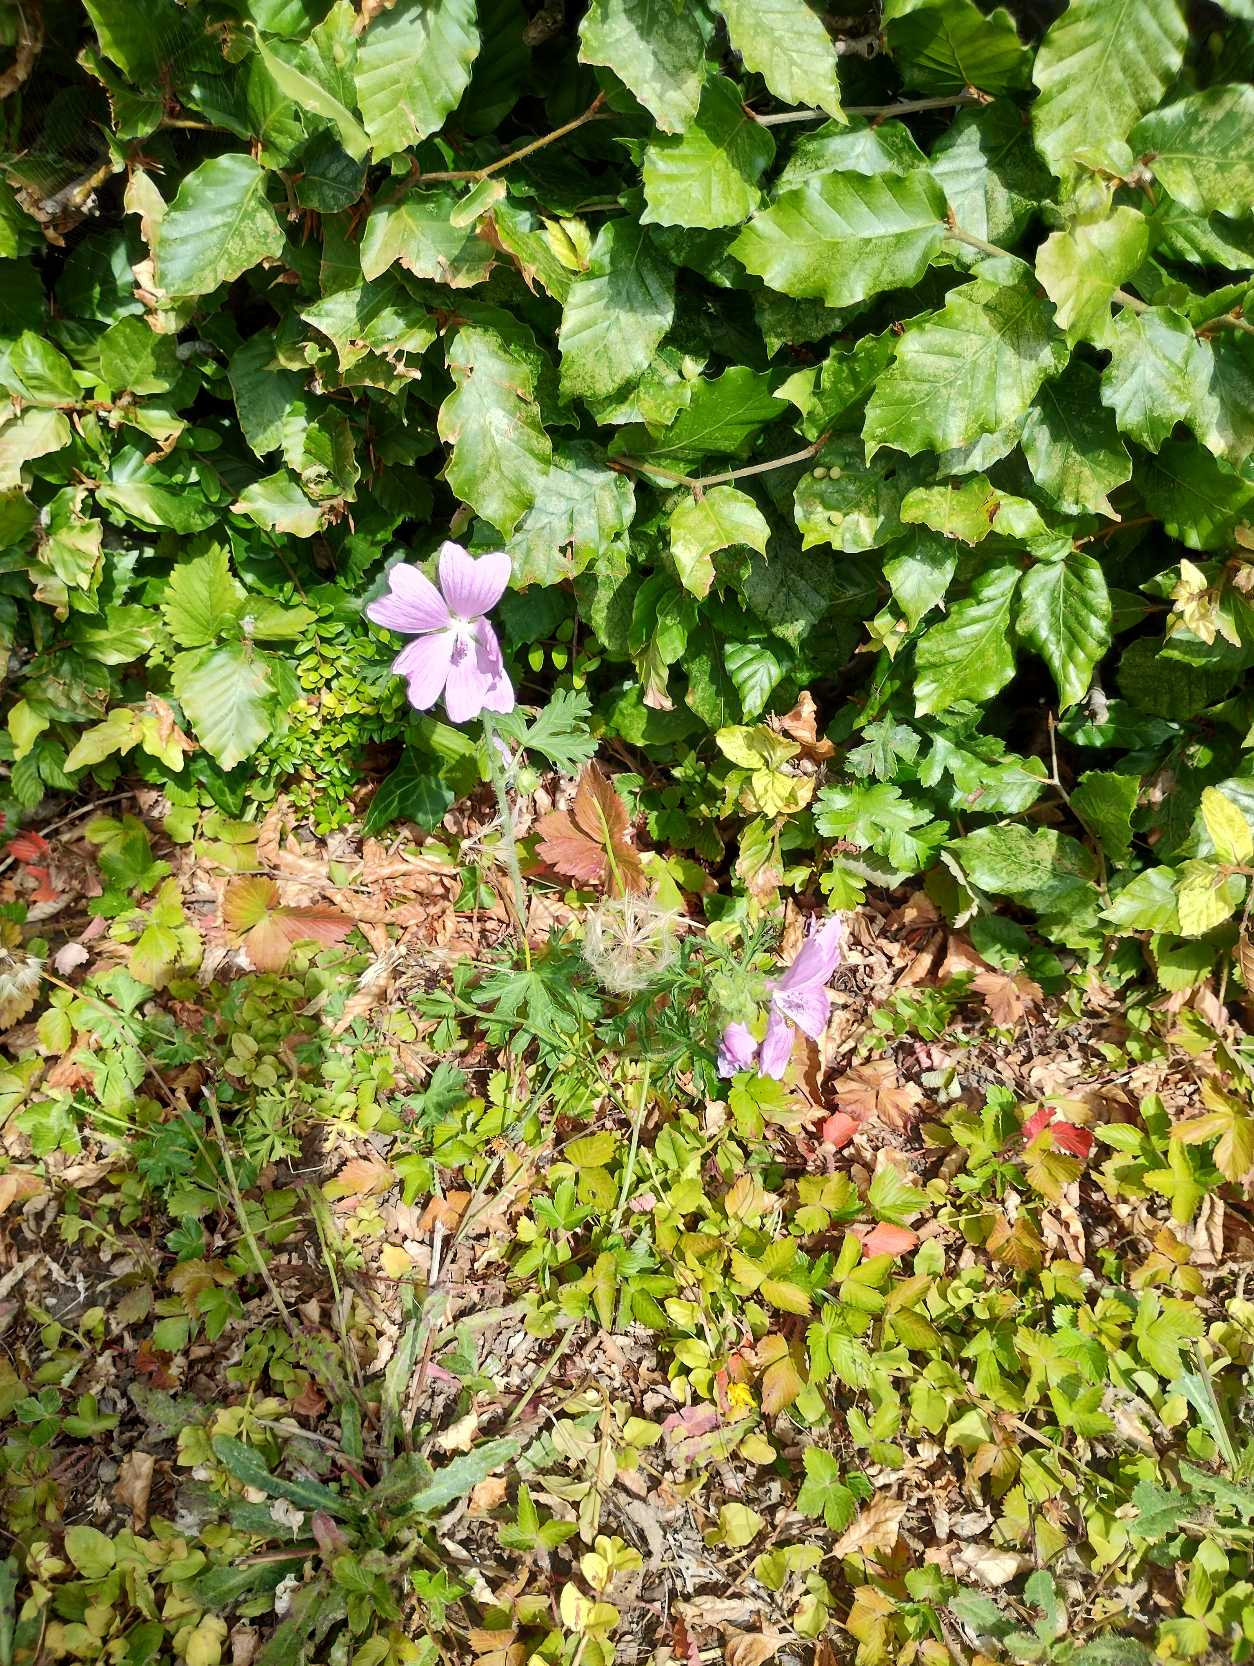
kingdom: Plantae
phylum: Tracheophyta
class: Magnoliopsida
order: Malvales
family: Malvaceae
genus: Malva
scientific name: Malva moschata
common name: Moskus-katost
